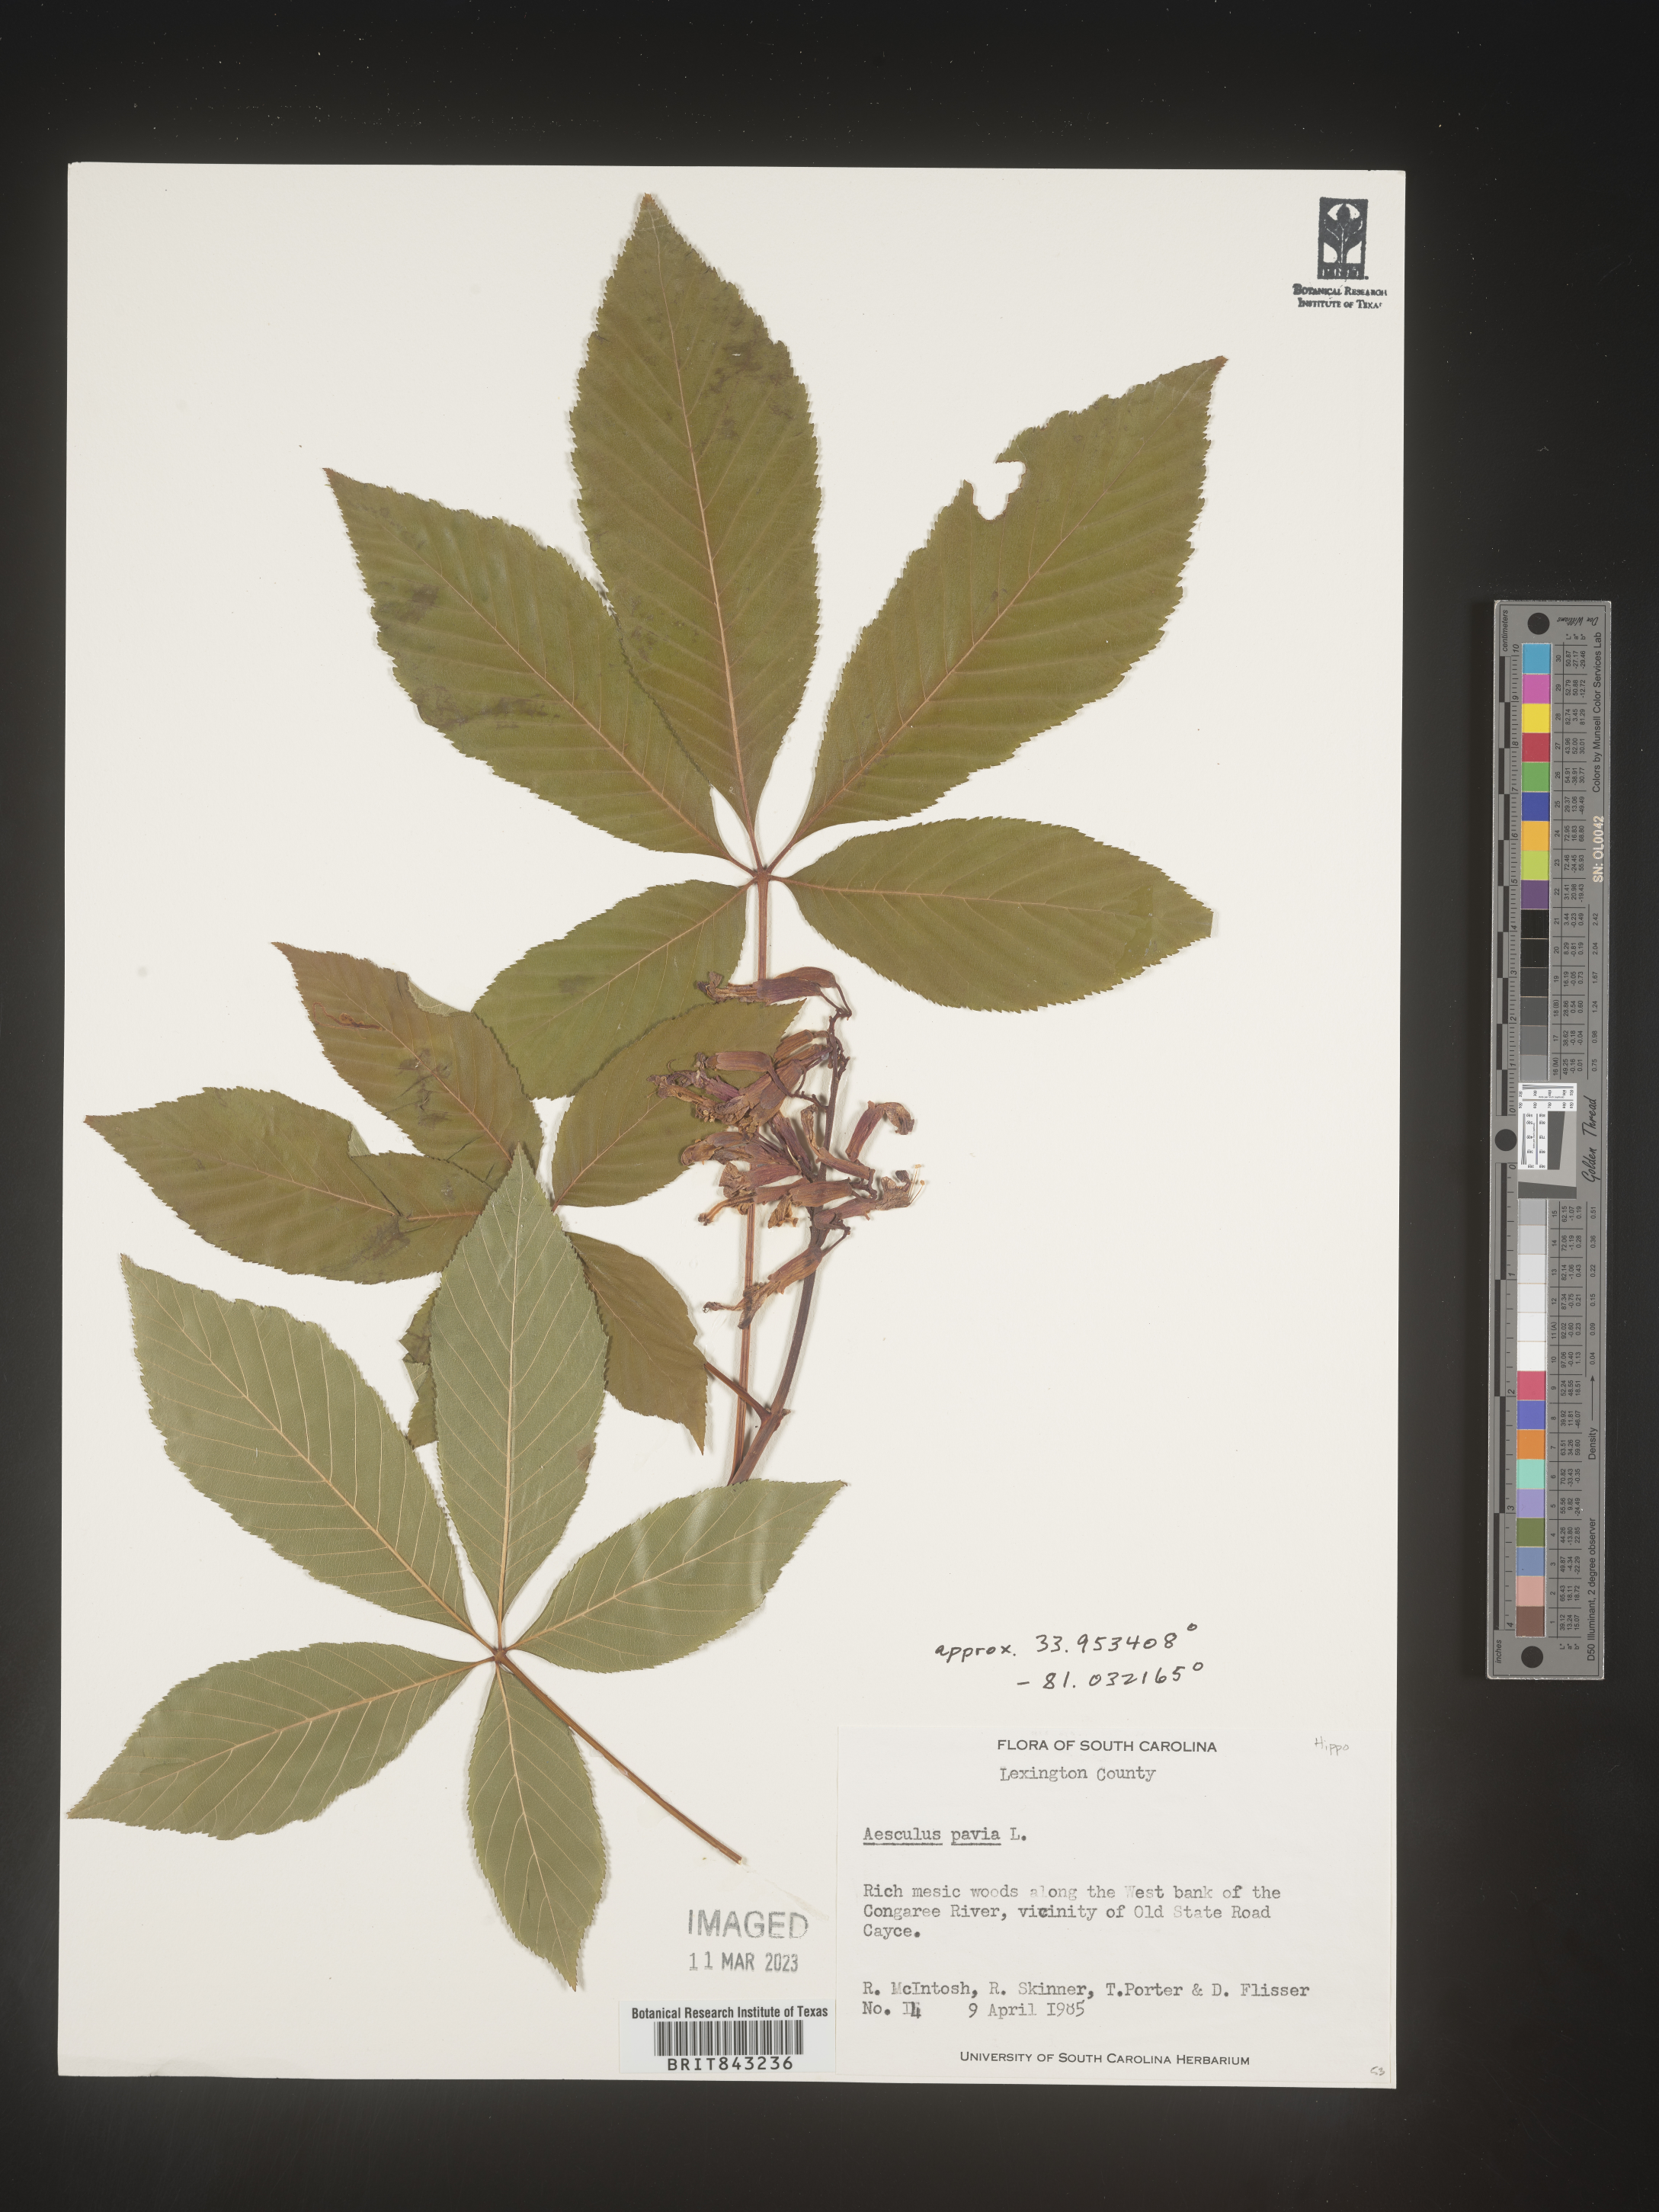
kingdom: Plantae
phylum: Tracheophyta
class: Magnoliopsida
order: Sapindales
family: Sapindaceae
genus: Aesculus
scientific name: Aesculus pavia
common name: Red buckeye
